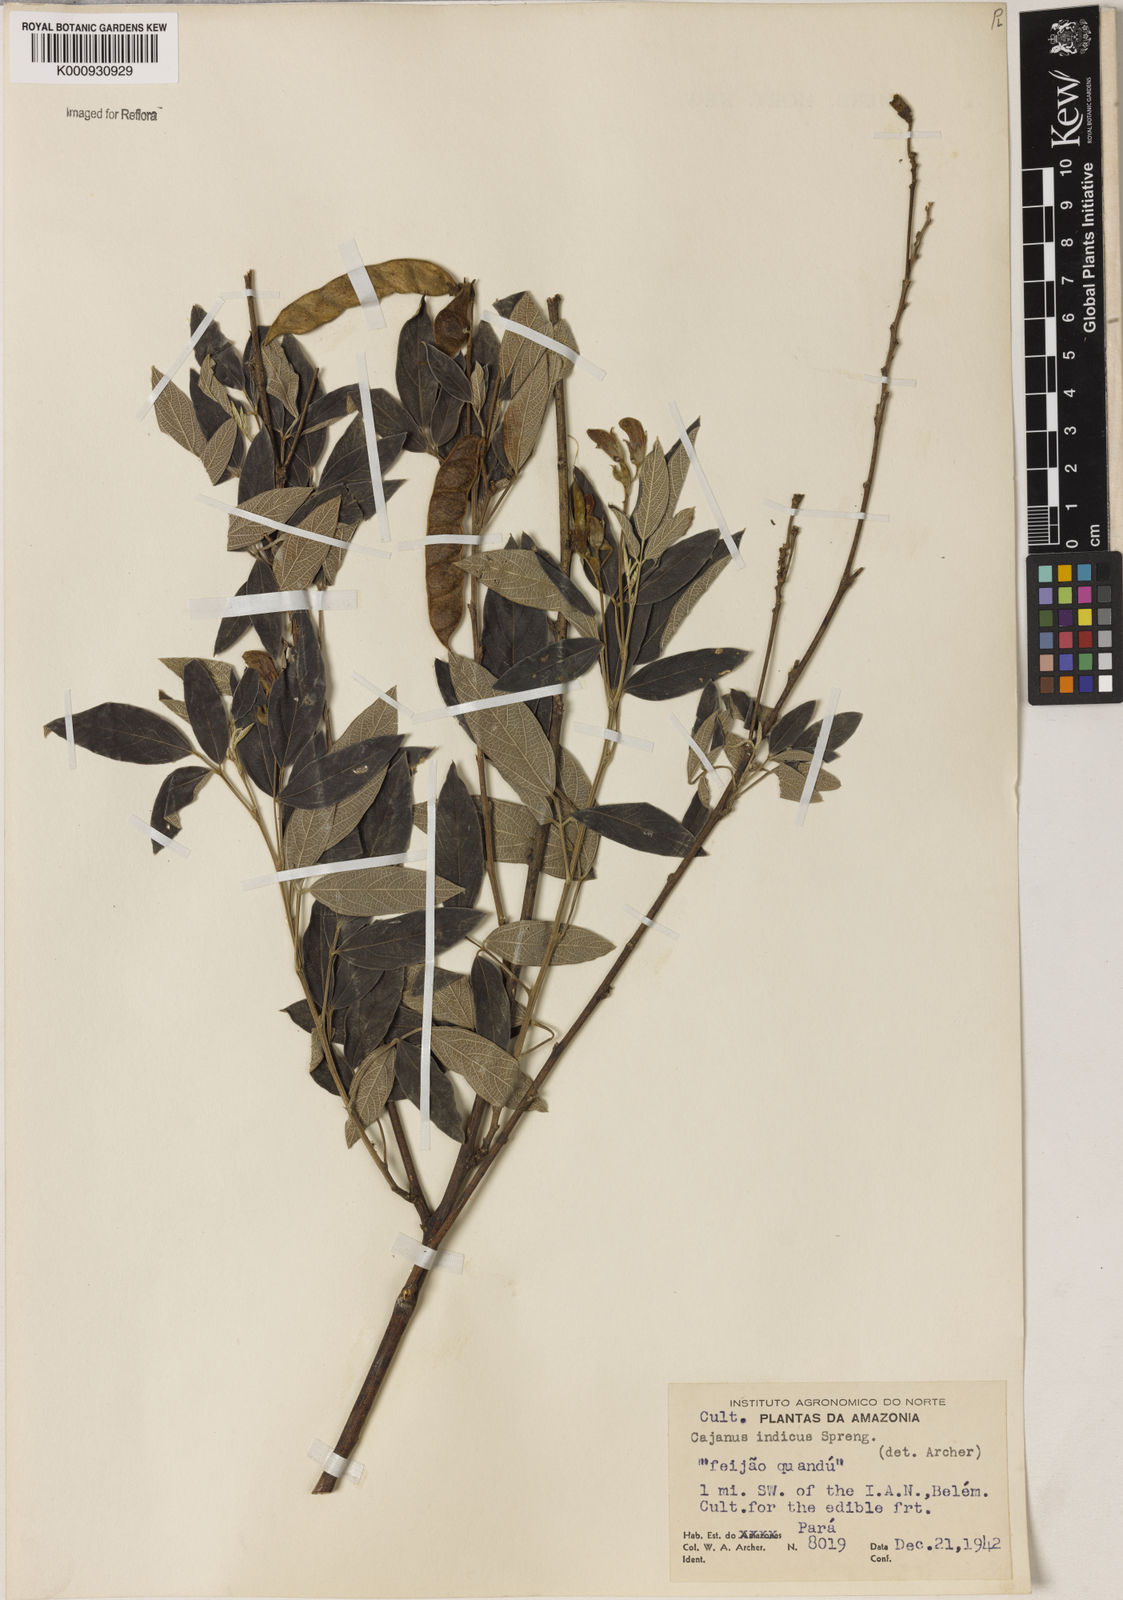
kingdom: Plantae
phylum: Tracheophyta
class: Magnoliopsida
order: Fabales
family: Fabaceae
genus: Cajanus
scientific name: Cajanus cajan
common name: Pigeonpea
